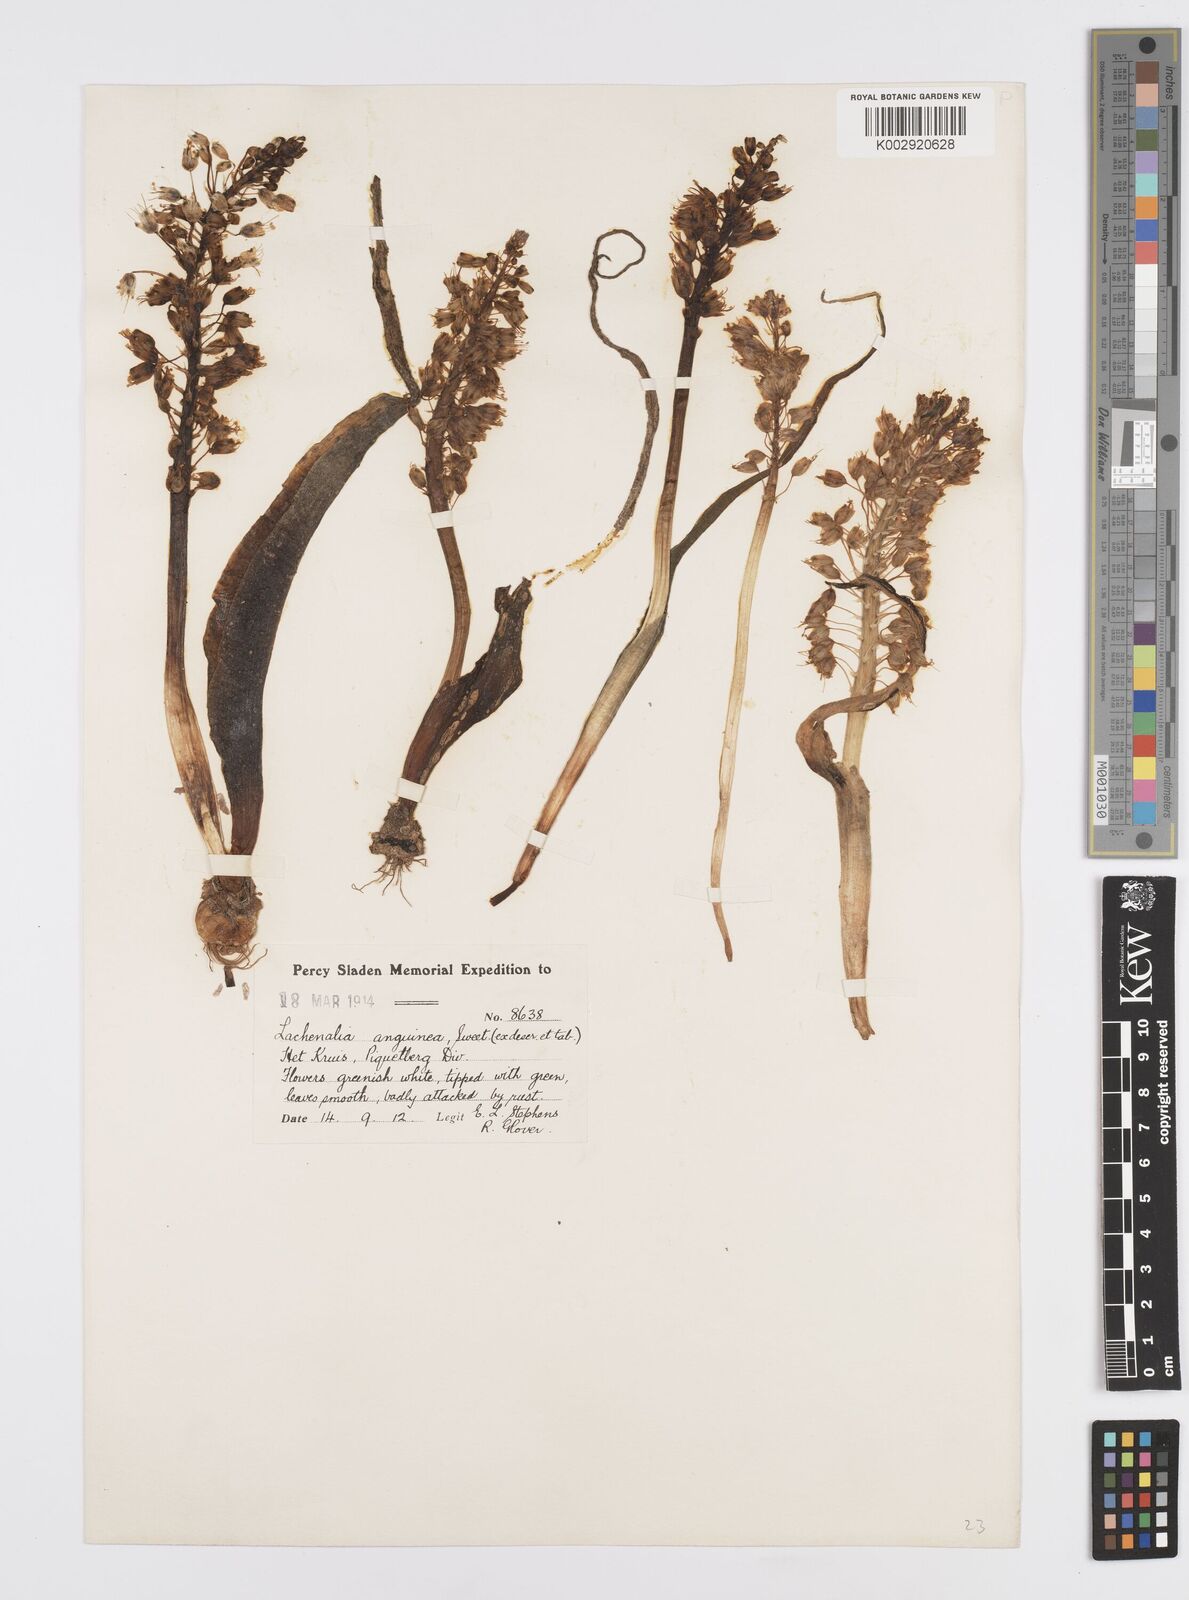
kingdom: Plantae
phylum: Tracheophyta
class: Liliopsida
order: Asparagales
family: Asparagaceae
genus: Lachenalia
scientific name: Lachenalia anguinea
